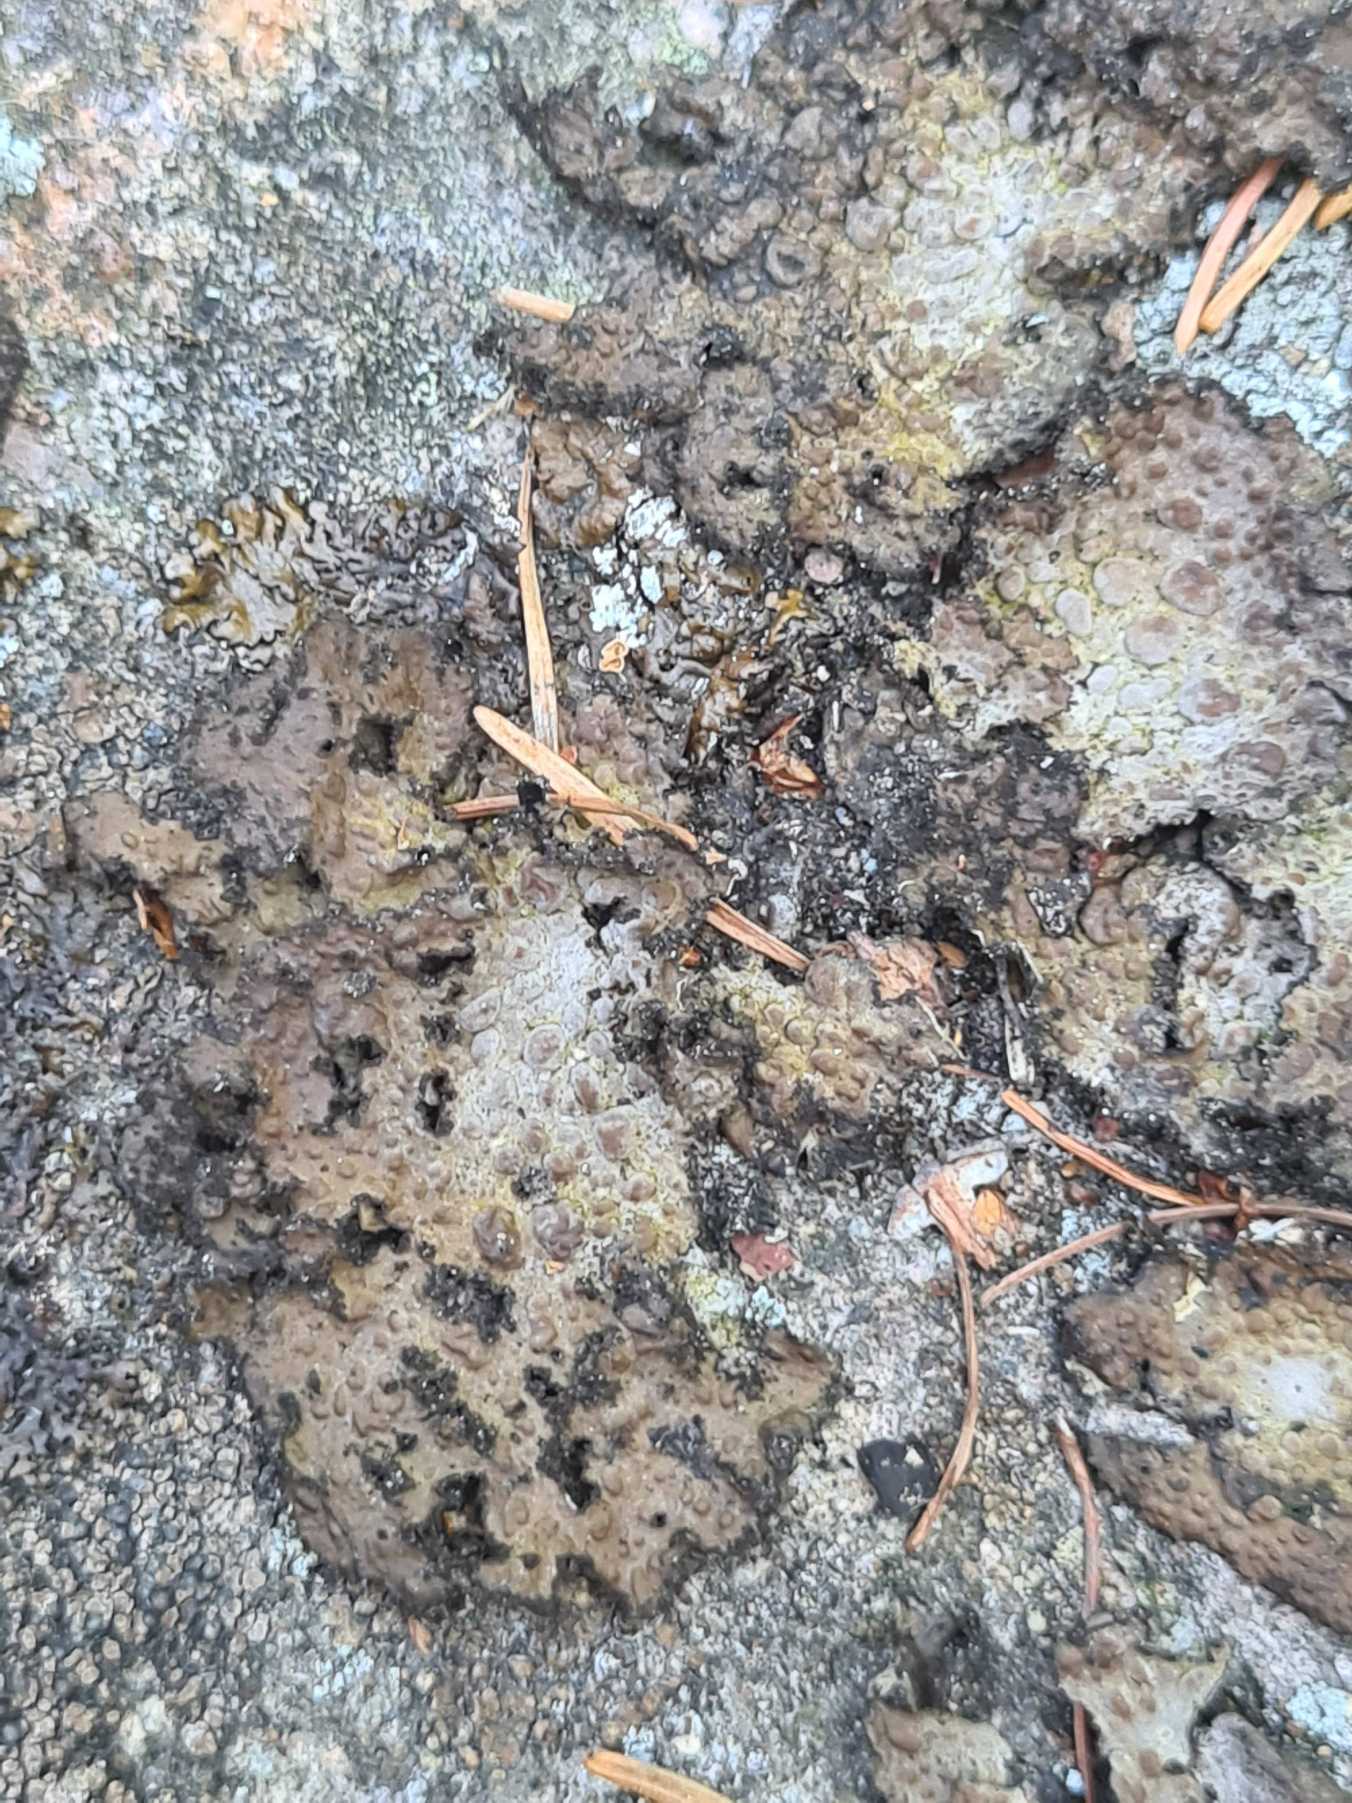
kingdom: Fungi
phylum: Ascomycota
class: Lecanoromycetes
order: Umbilicariales
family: Umbilicariaceae
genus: Lasallia
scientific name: Lasallia pustulata
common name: Buklet navlelav
